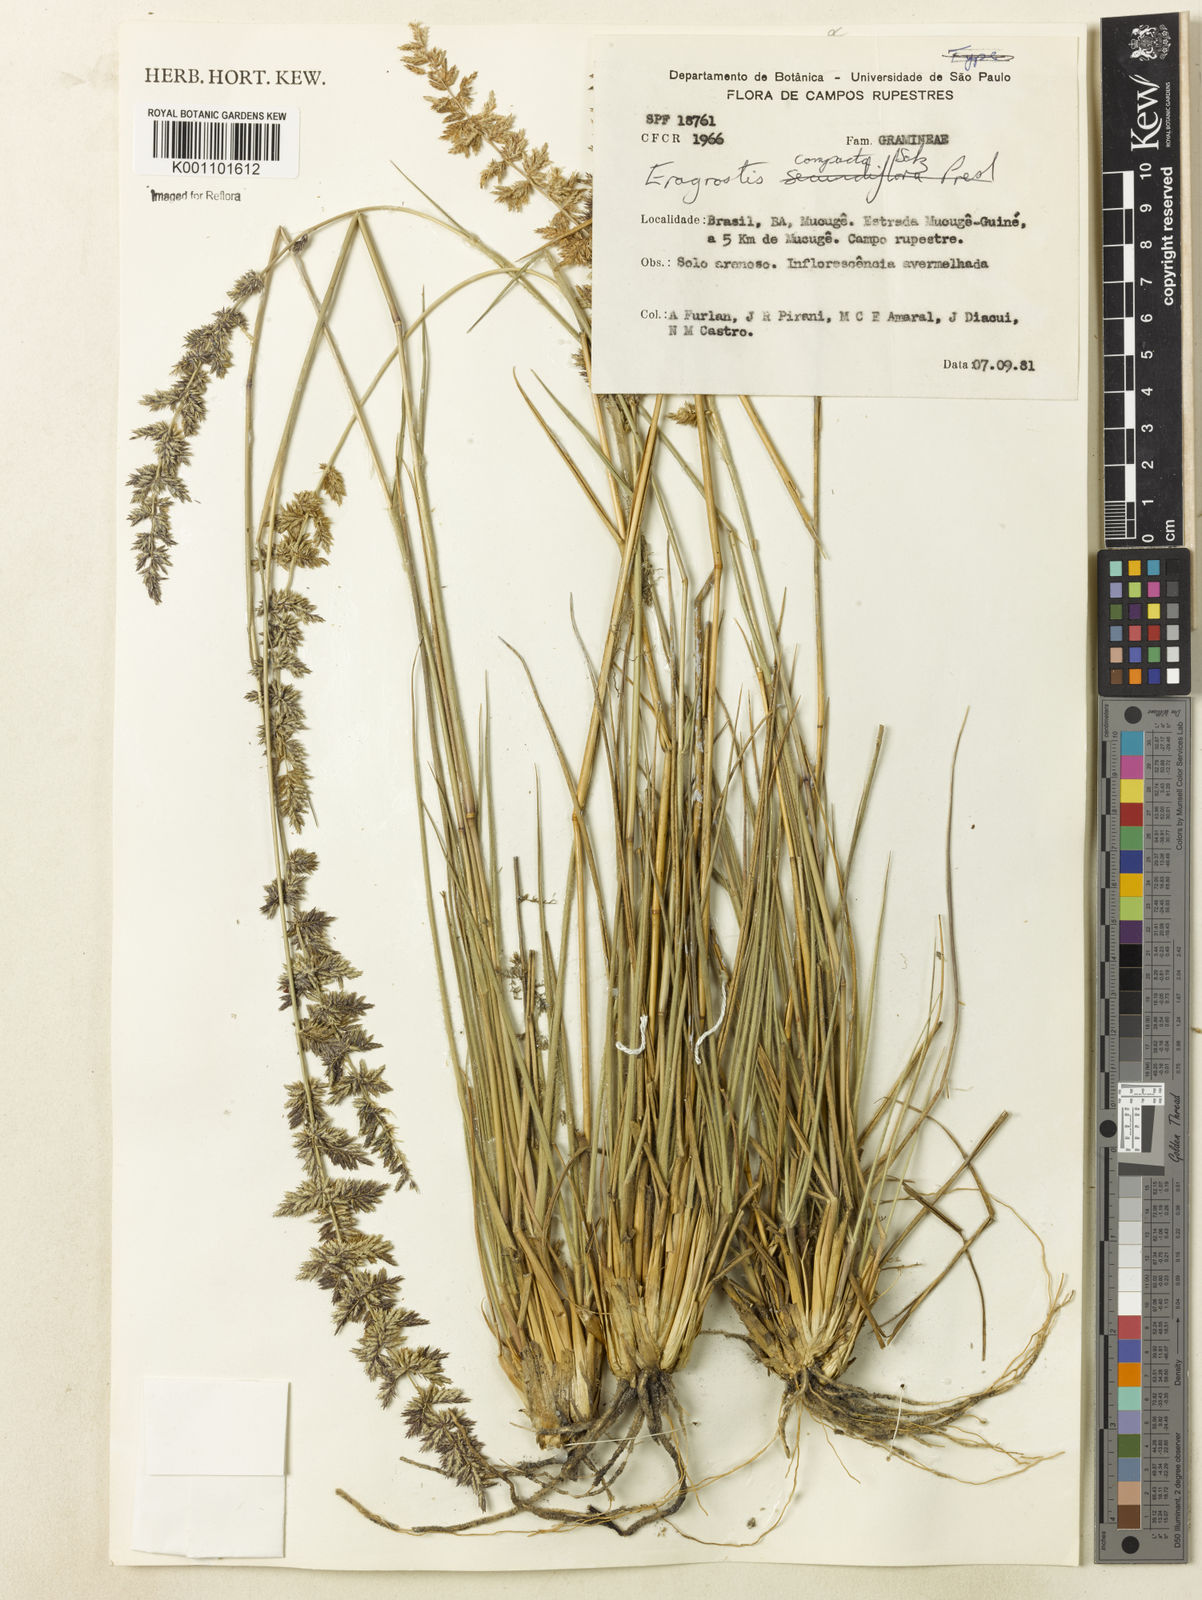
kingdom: Plantae
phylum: Tracheophyta
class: Liliopsida
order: Poales
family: Poaceae
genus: Eragrostis
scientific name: Eragrostis petrensis
